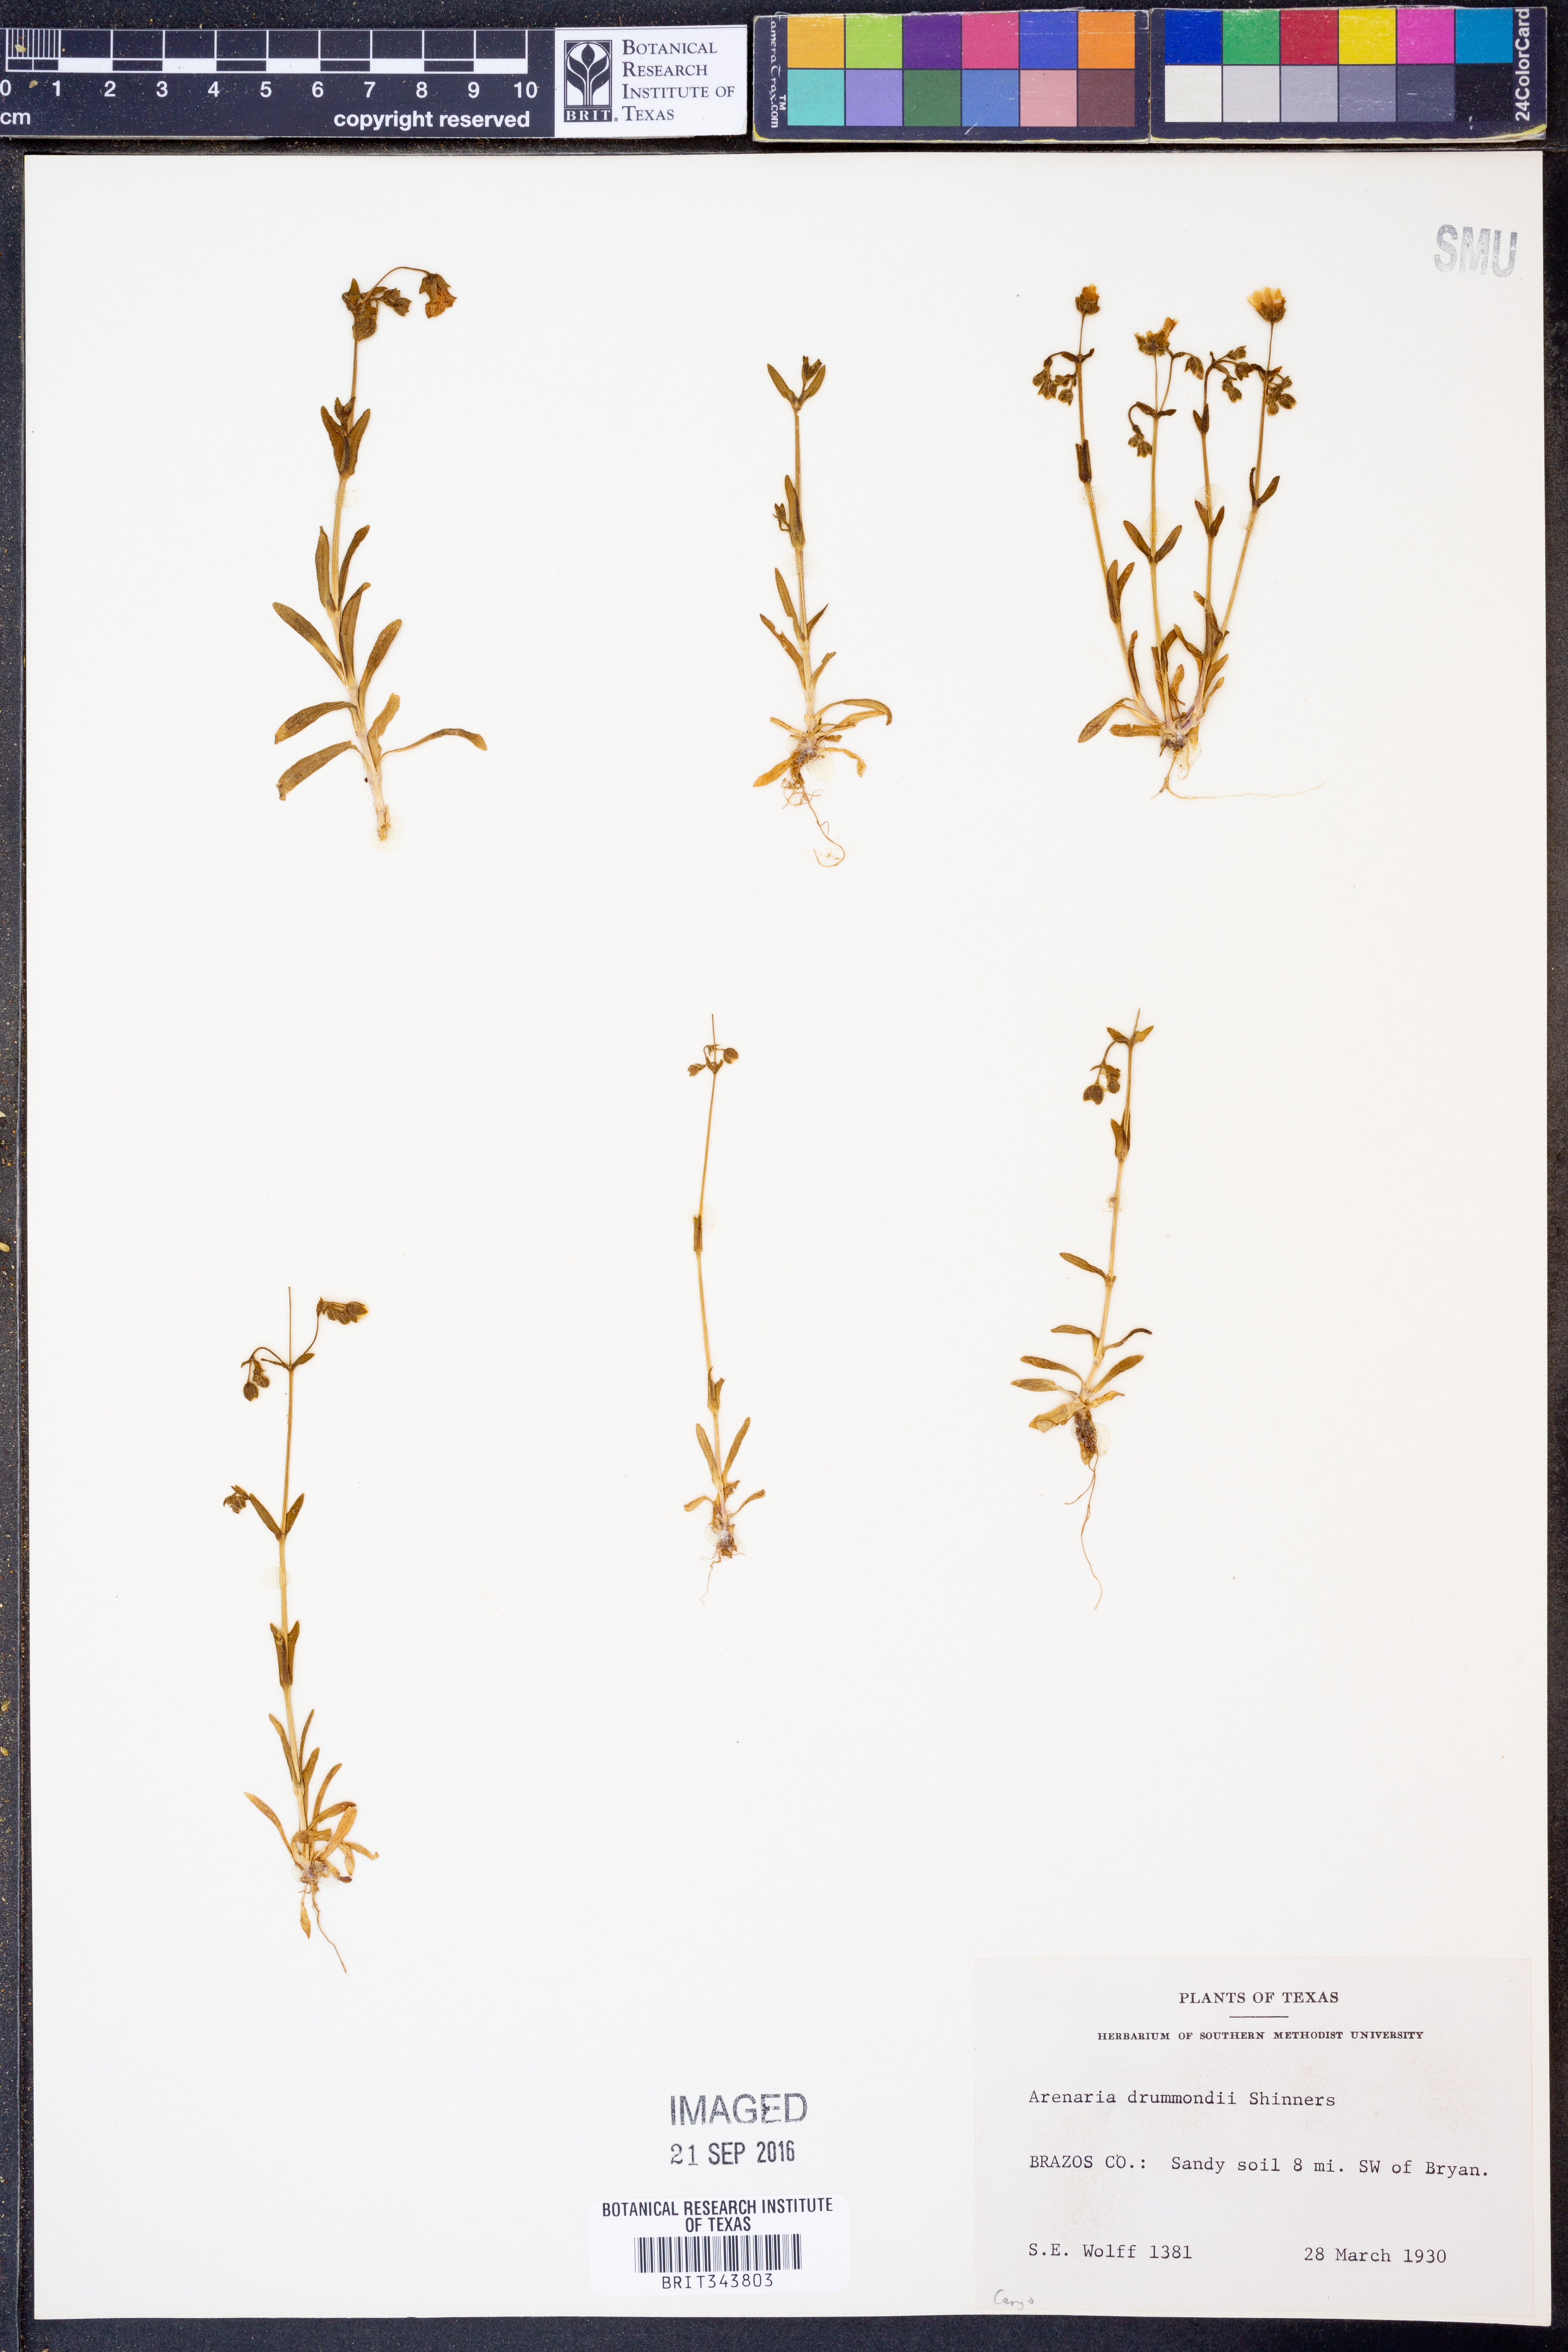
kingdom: Plantae
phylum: Tracheophyta
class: Magnoliopsida
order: Caryophyllales
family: Caryophyllaceae
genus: Geocarpon
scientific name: Geocarpon nuttallii
